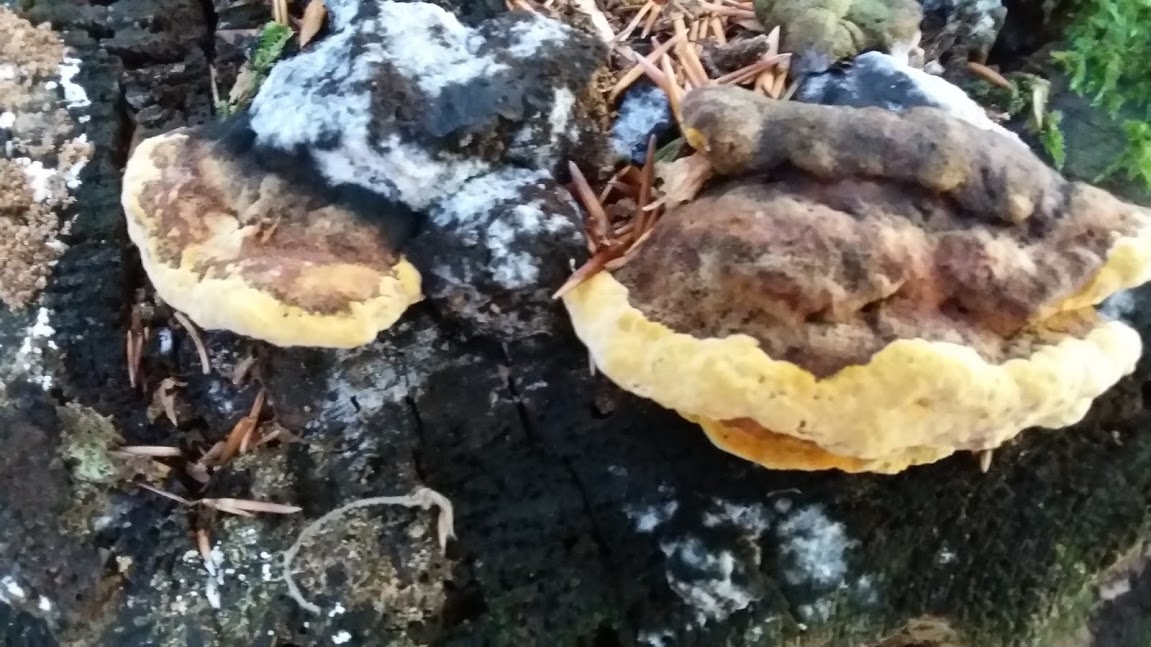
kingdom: Fungi
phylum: Basidiomycota
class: Agaricomycetes
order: Gloeophyllales
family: Gloeophyllaceae
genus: Gloeophyllum
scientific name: Gloeophyllum odoratum
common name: duftende korkhat
